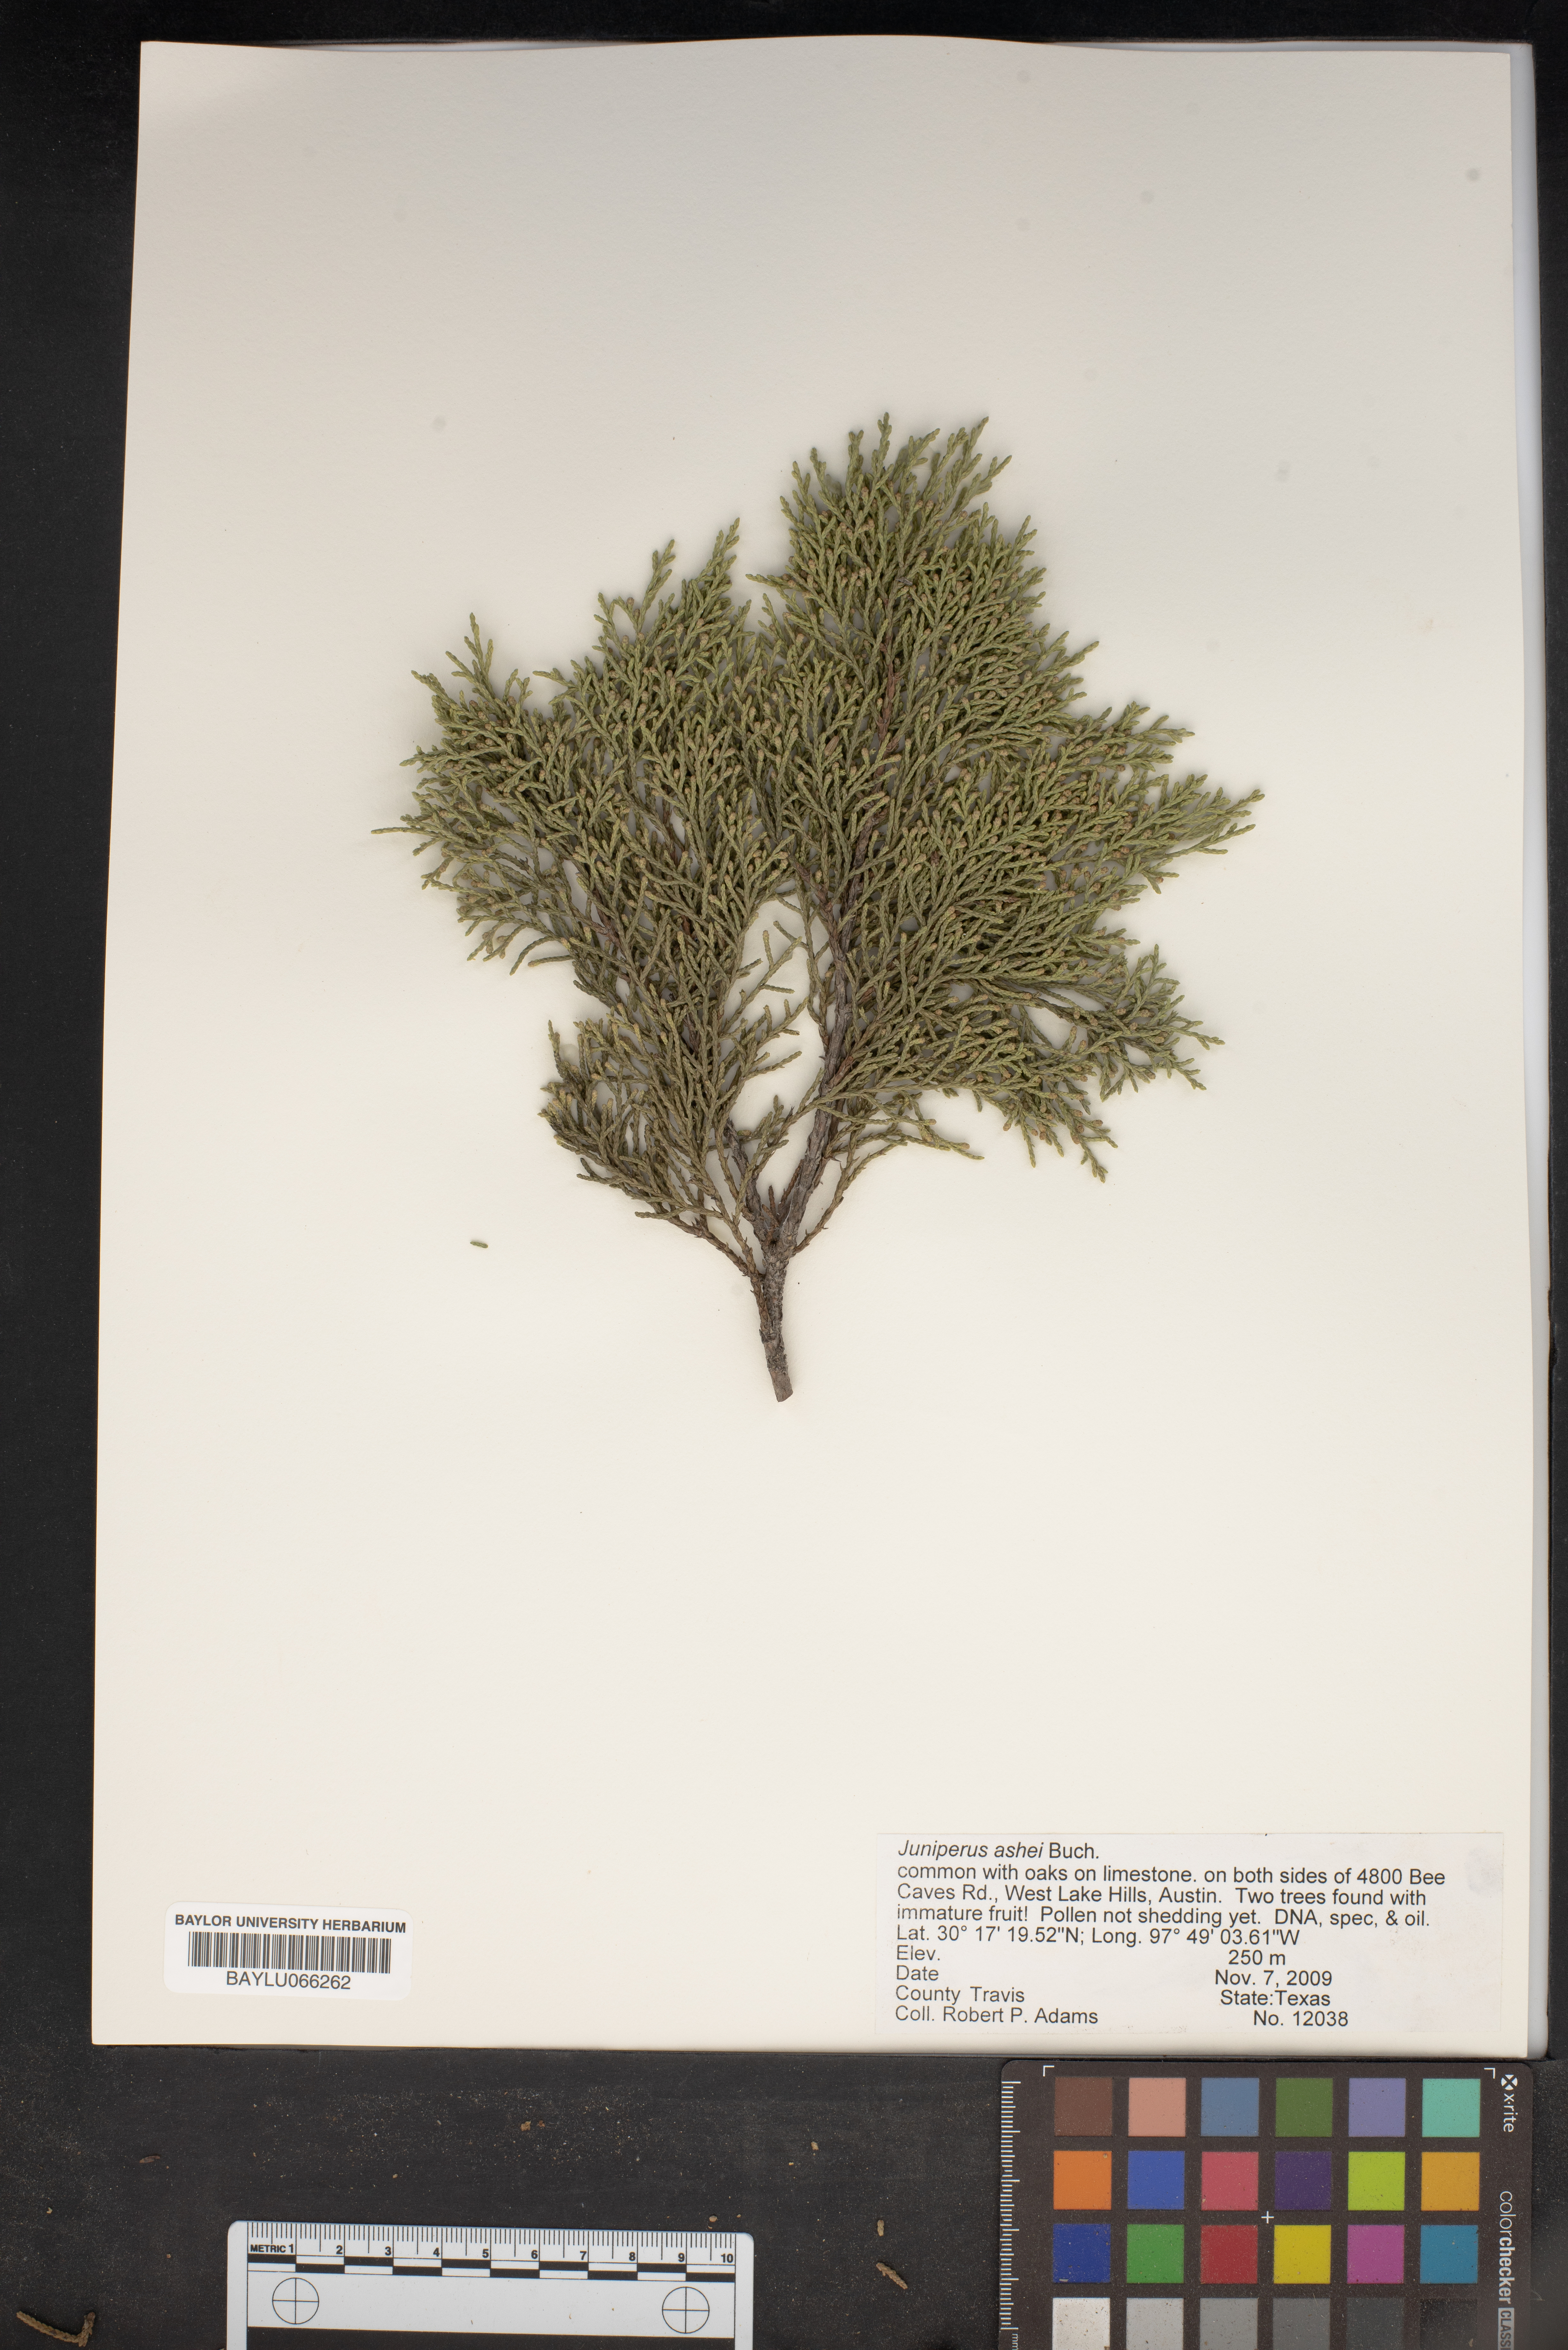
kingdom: Plantae
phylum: Tracheophyta
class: Pinopsida
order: Pinales
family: Cupressaceae
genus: Juniperus
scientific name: Juniperus ashei
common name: Mexican juniper
